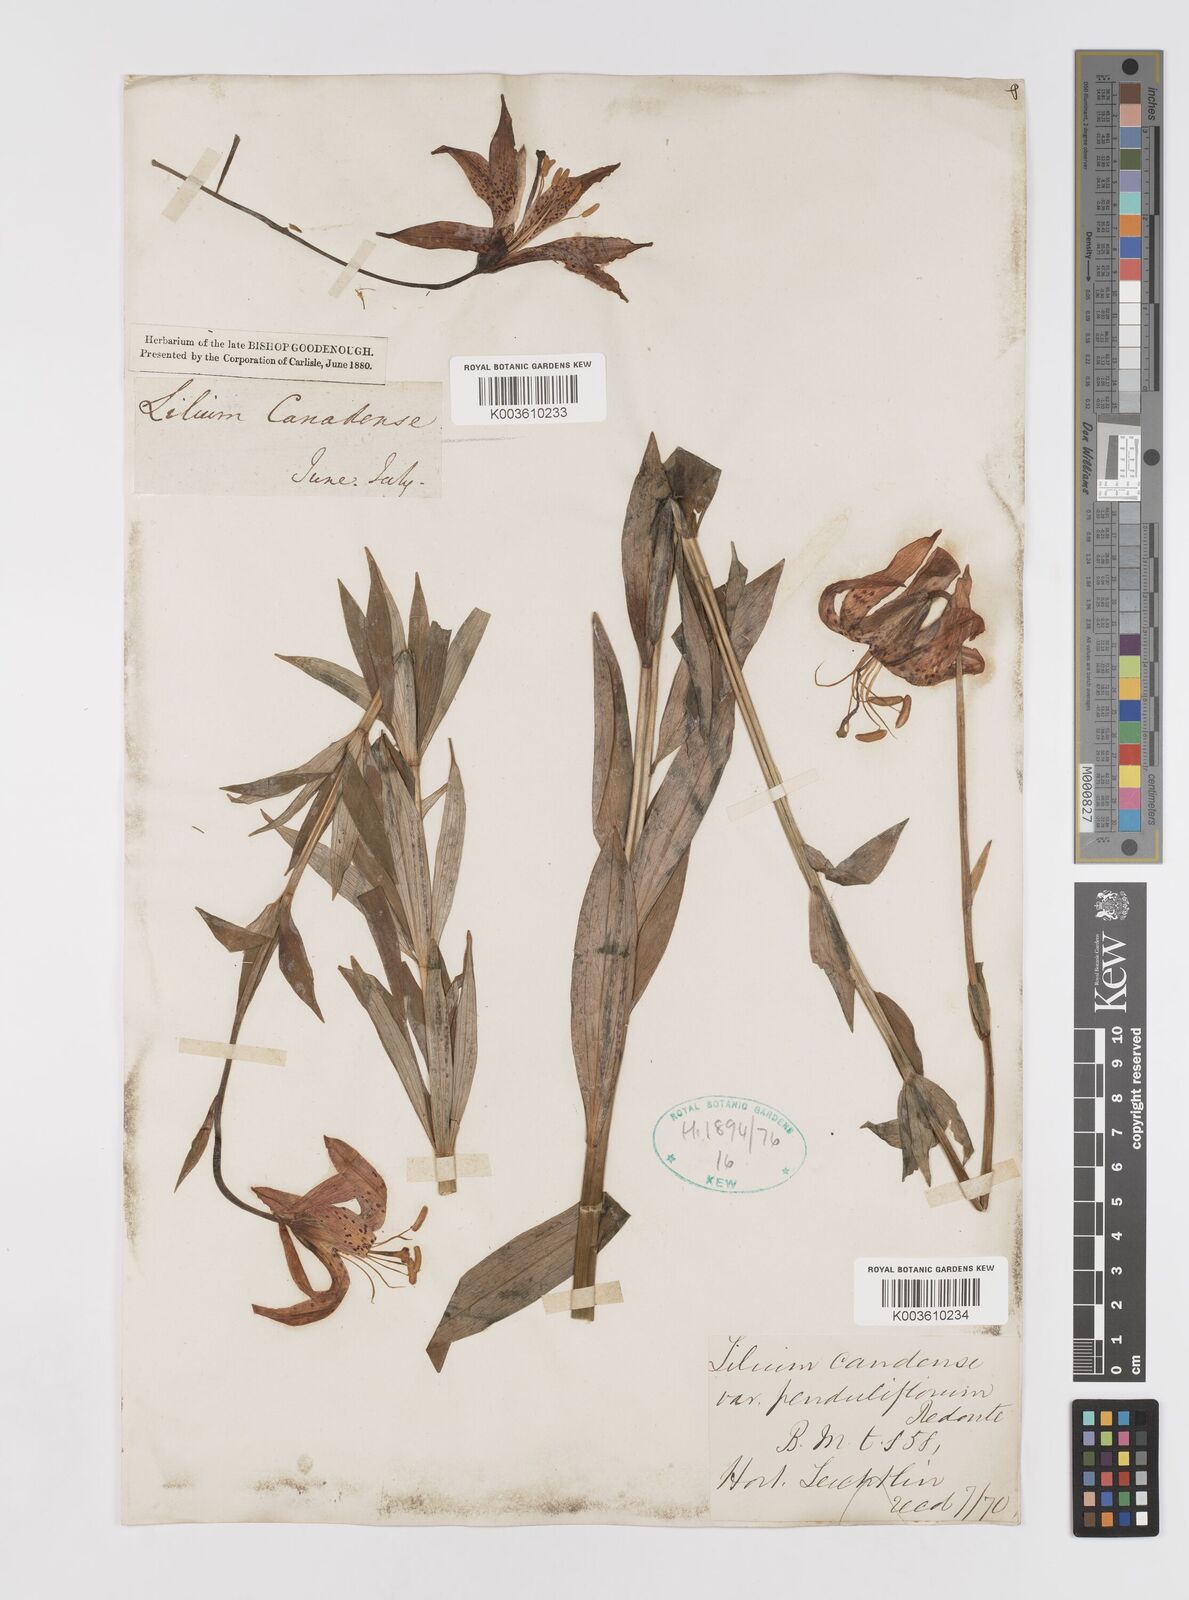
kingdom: Plantae
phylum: Tracheophyta
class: Liliopsida
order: Liliales
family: Liliaceae
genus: Lilium
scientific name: Lilium canadense
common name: Canada lily
